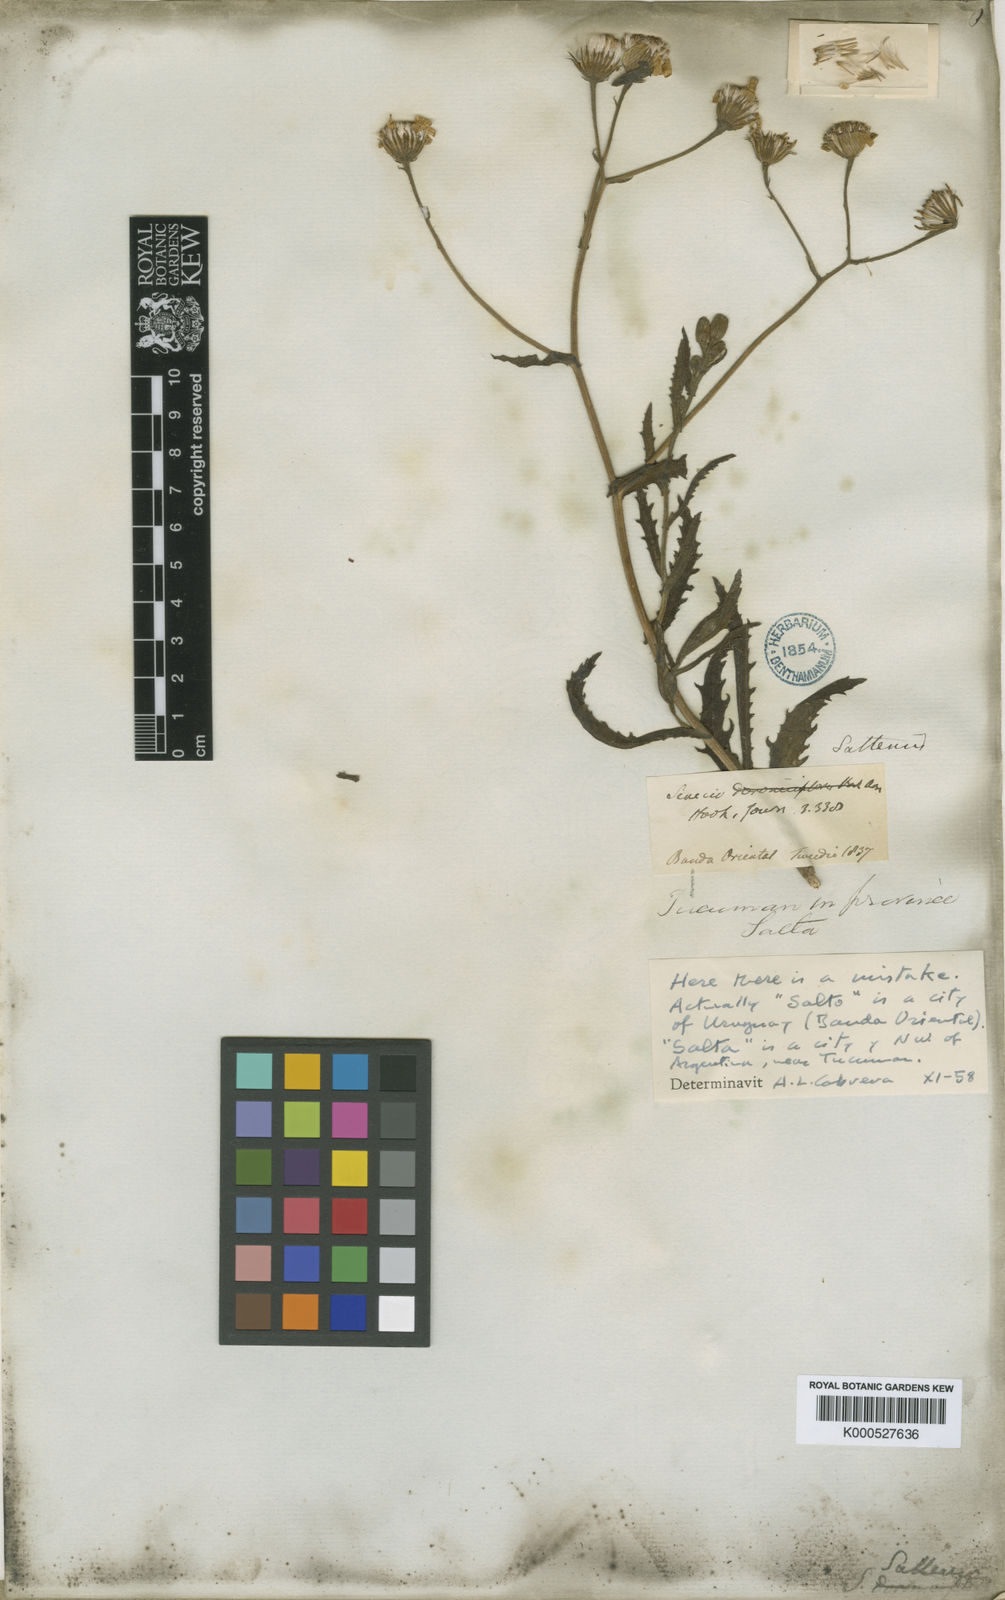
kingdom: Plantae
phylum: Tracheophyta
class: Magnoliopsida
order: Asterales
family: Asteraceae
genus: Senecio
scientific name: Senecio saltensis
